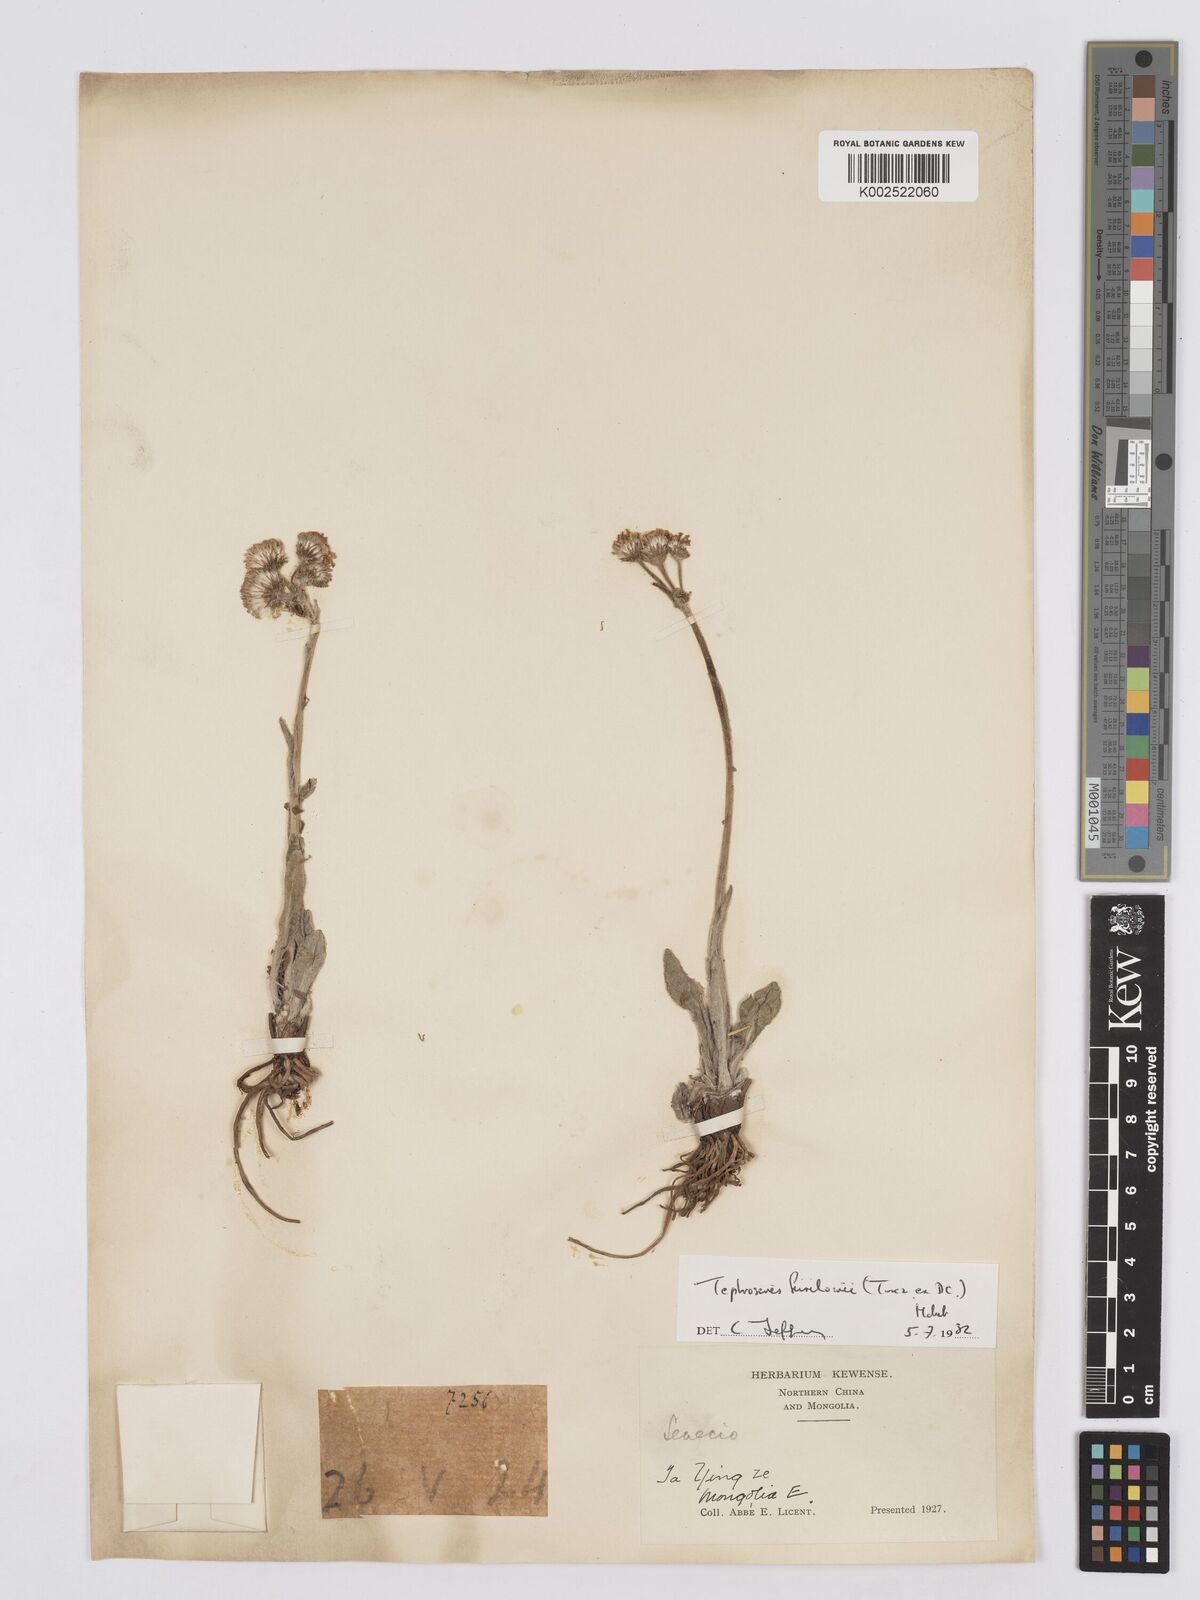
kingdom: Plantae
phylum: Tracheophyta
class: Magnoliopsida
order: Asterales
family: Asteraceae
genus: Tephroseris
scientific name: Tephroseris kirilowii
